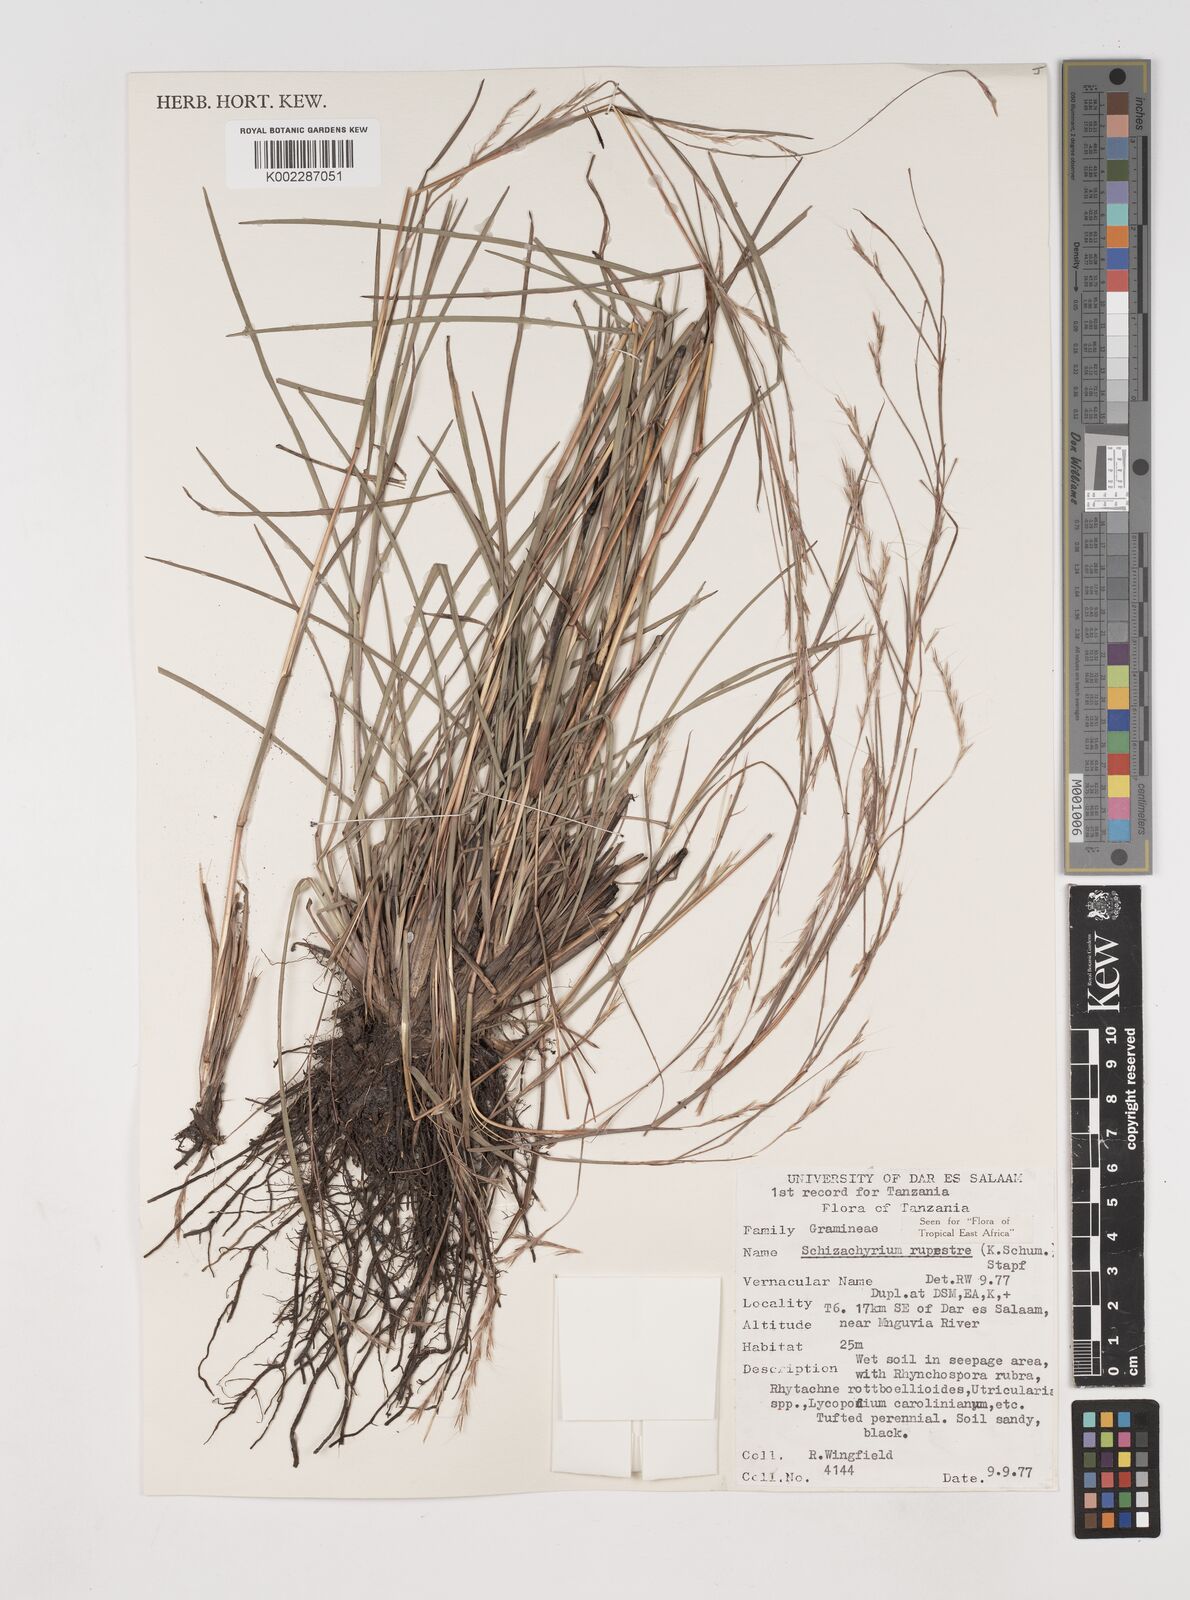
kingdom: Plantae
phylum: Tracheophyta
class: Liliopsida
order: Poales
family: Poaceae
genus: Andropogon
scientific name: Andropogon rupestris
